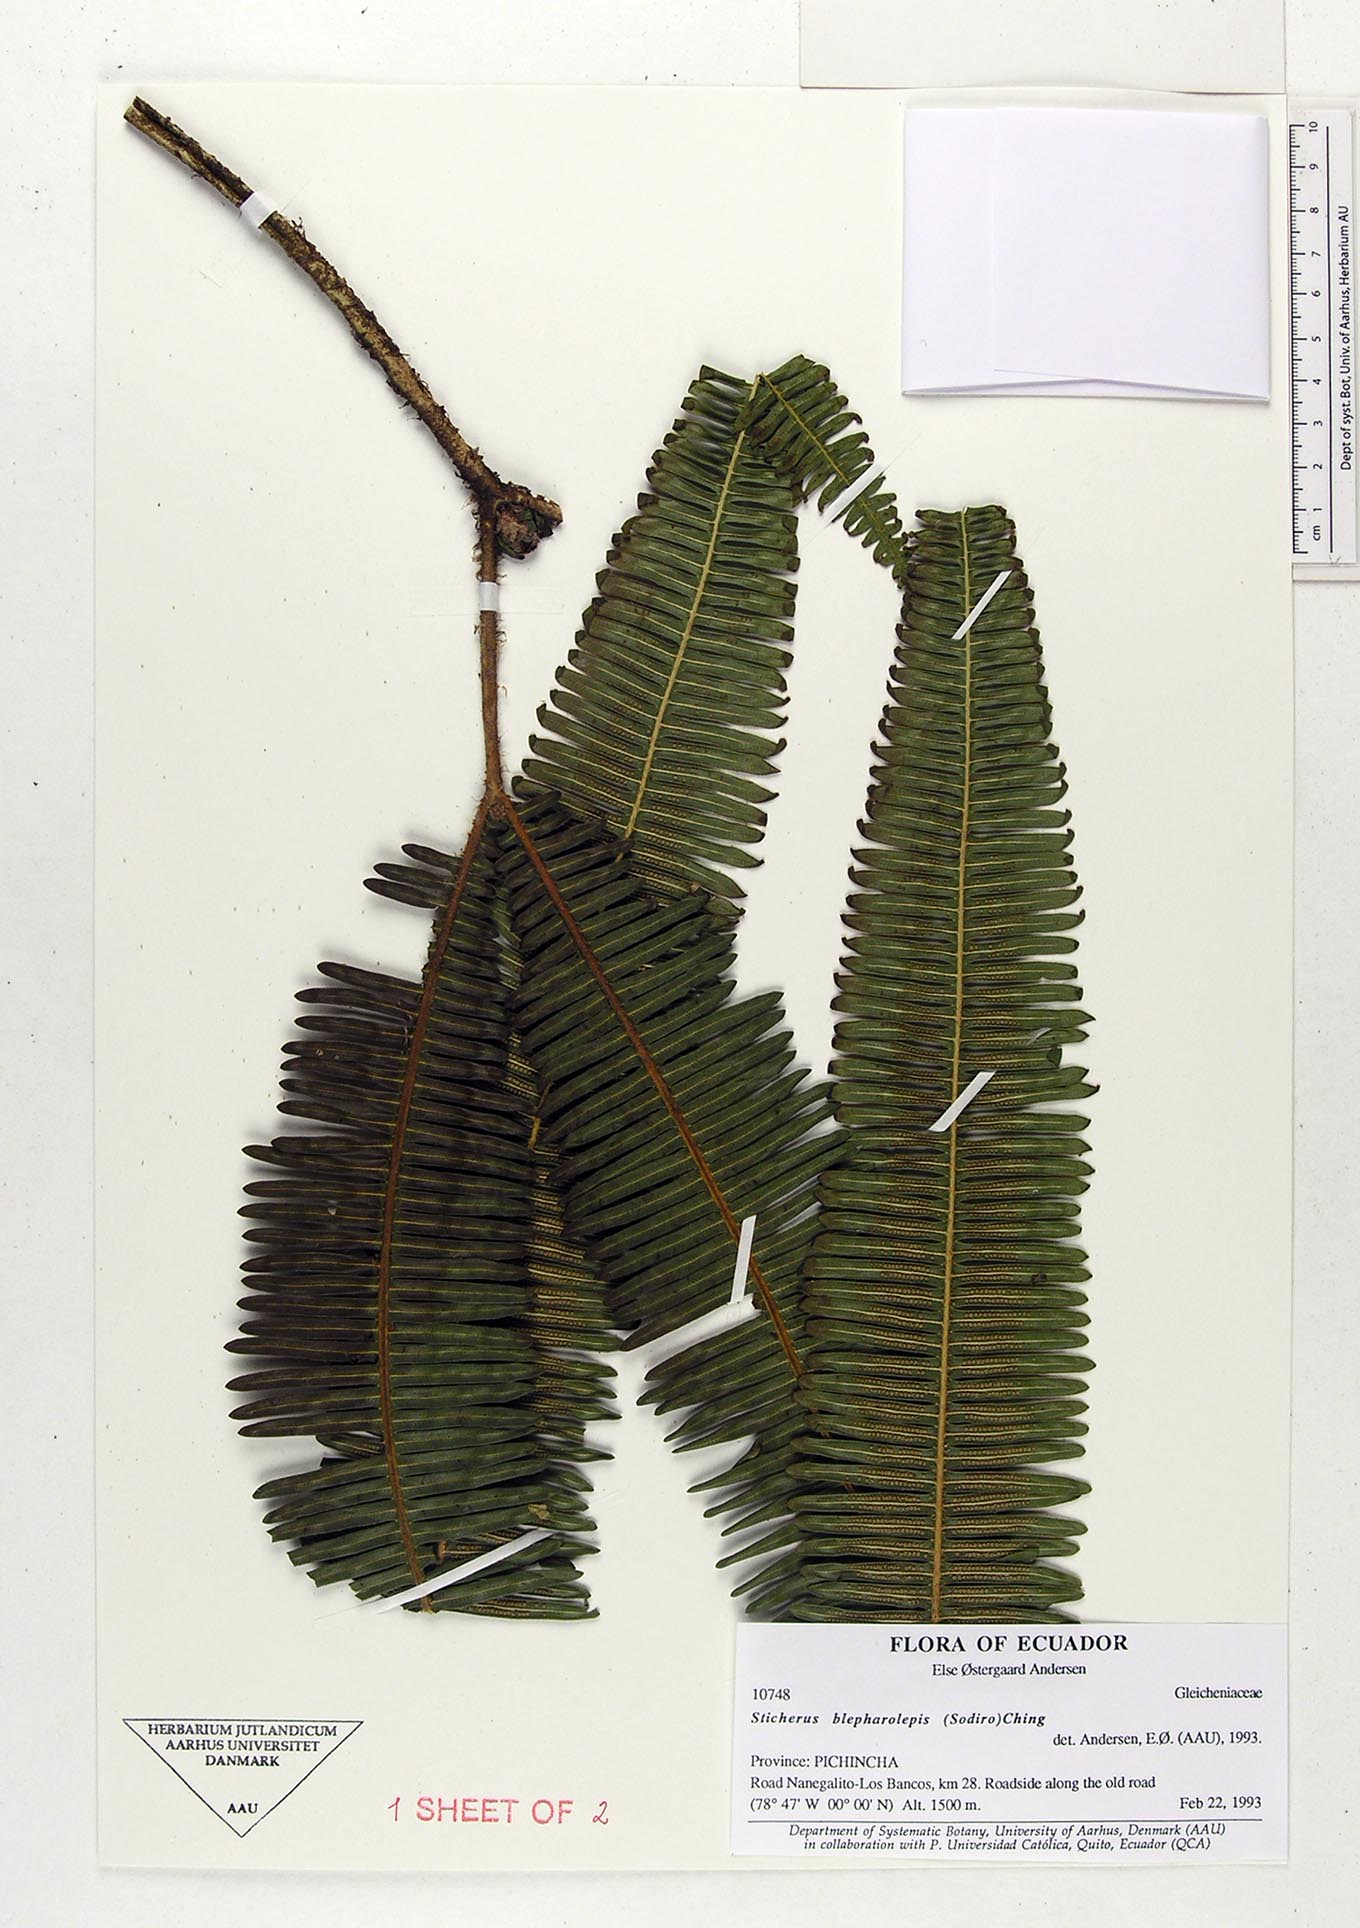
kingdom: Plantae
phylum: Tracheophyta
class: Polypodiopsida
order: Gleicheniales
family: Gleicheniaceae
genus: Sticherus
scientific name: Sticherus blepharolepis
